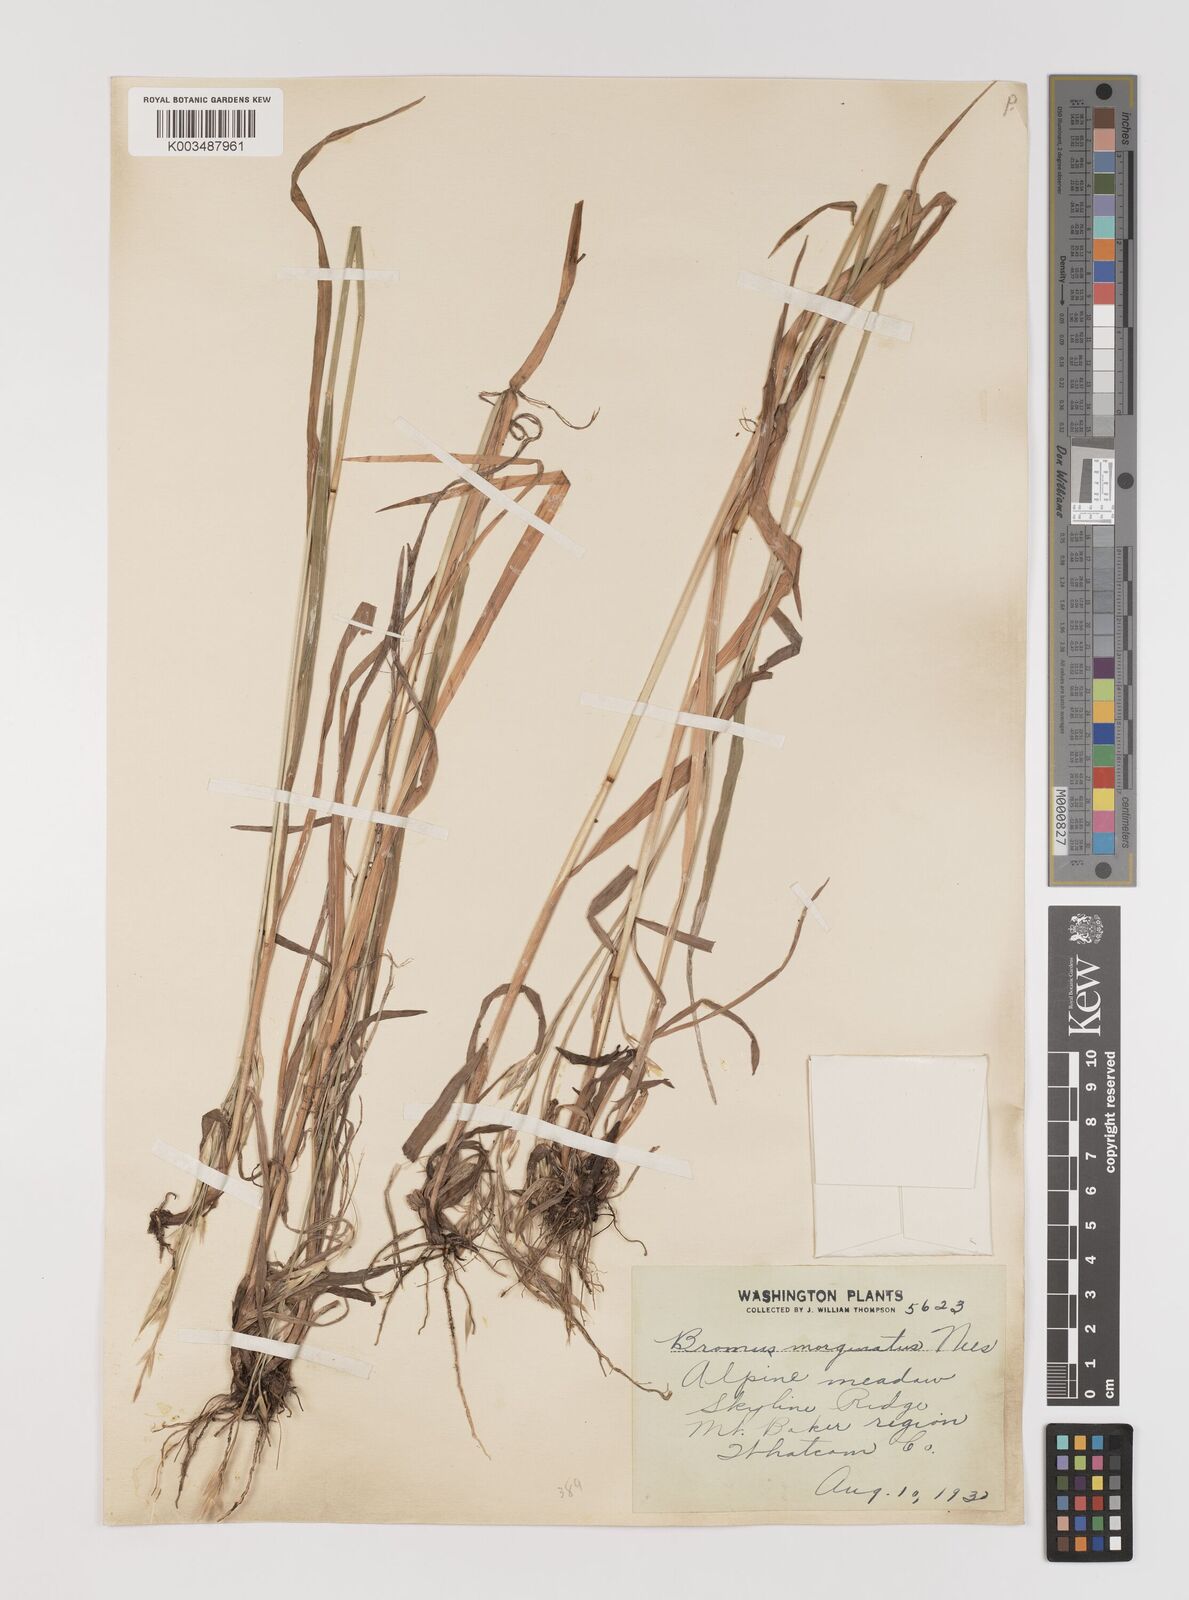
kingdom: Plantae
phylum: Tracheophyta
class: Liliopsida
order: Poales
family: Poaceae
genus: Bromus
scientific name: Bromus marginatus
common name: Western brome
